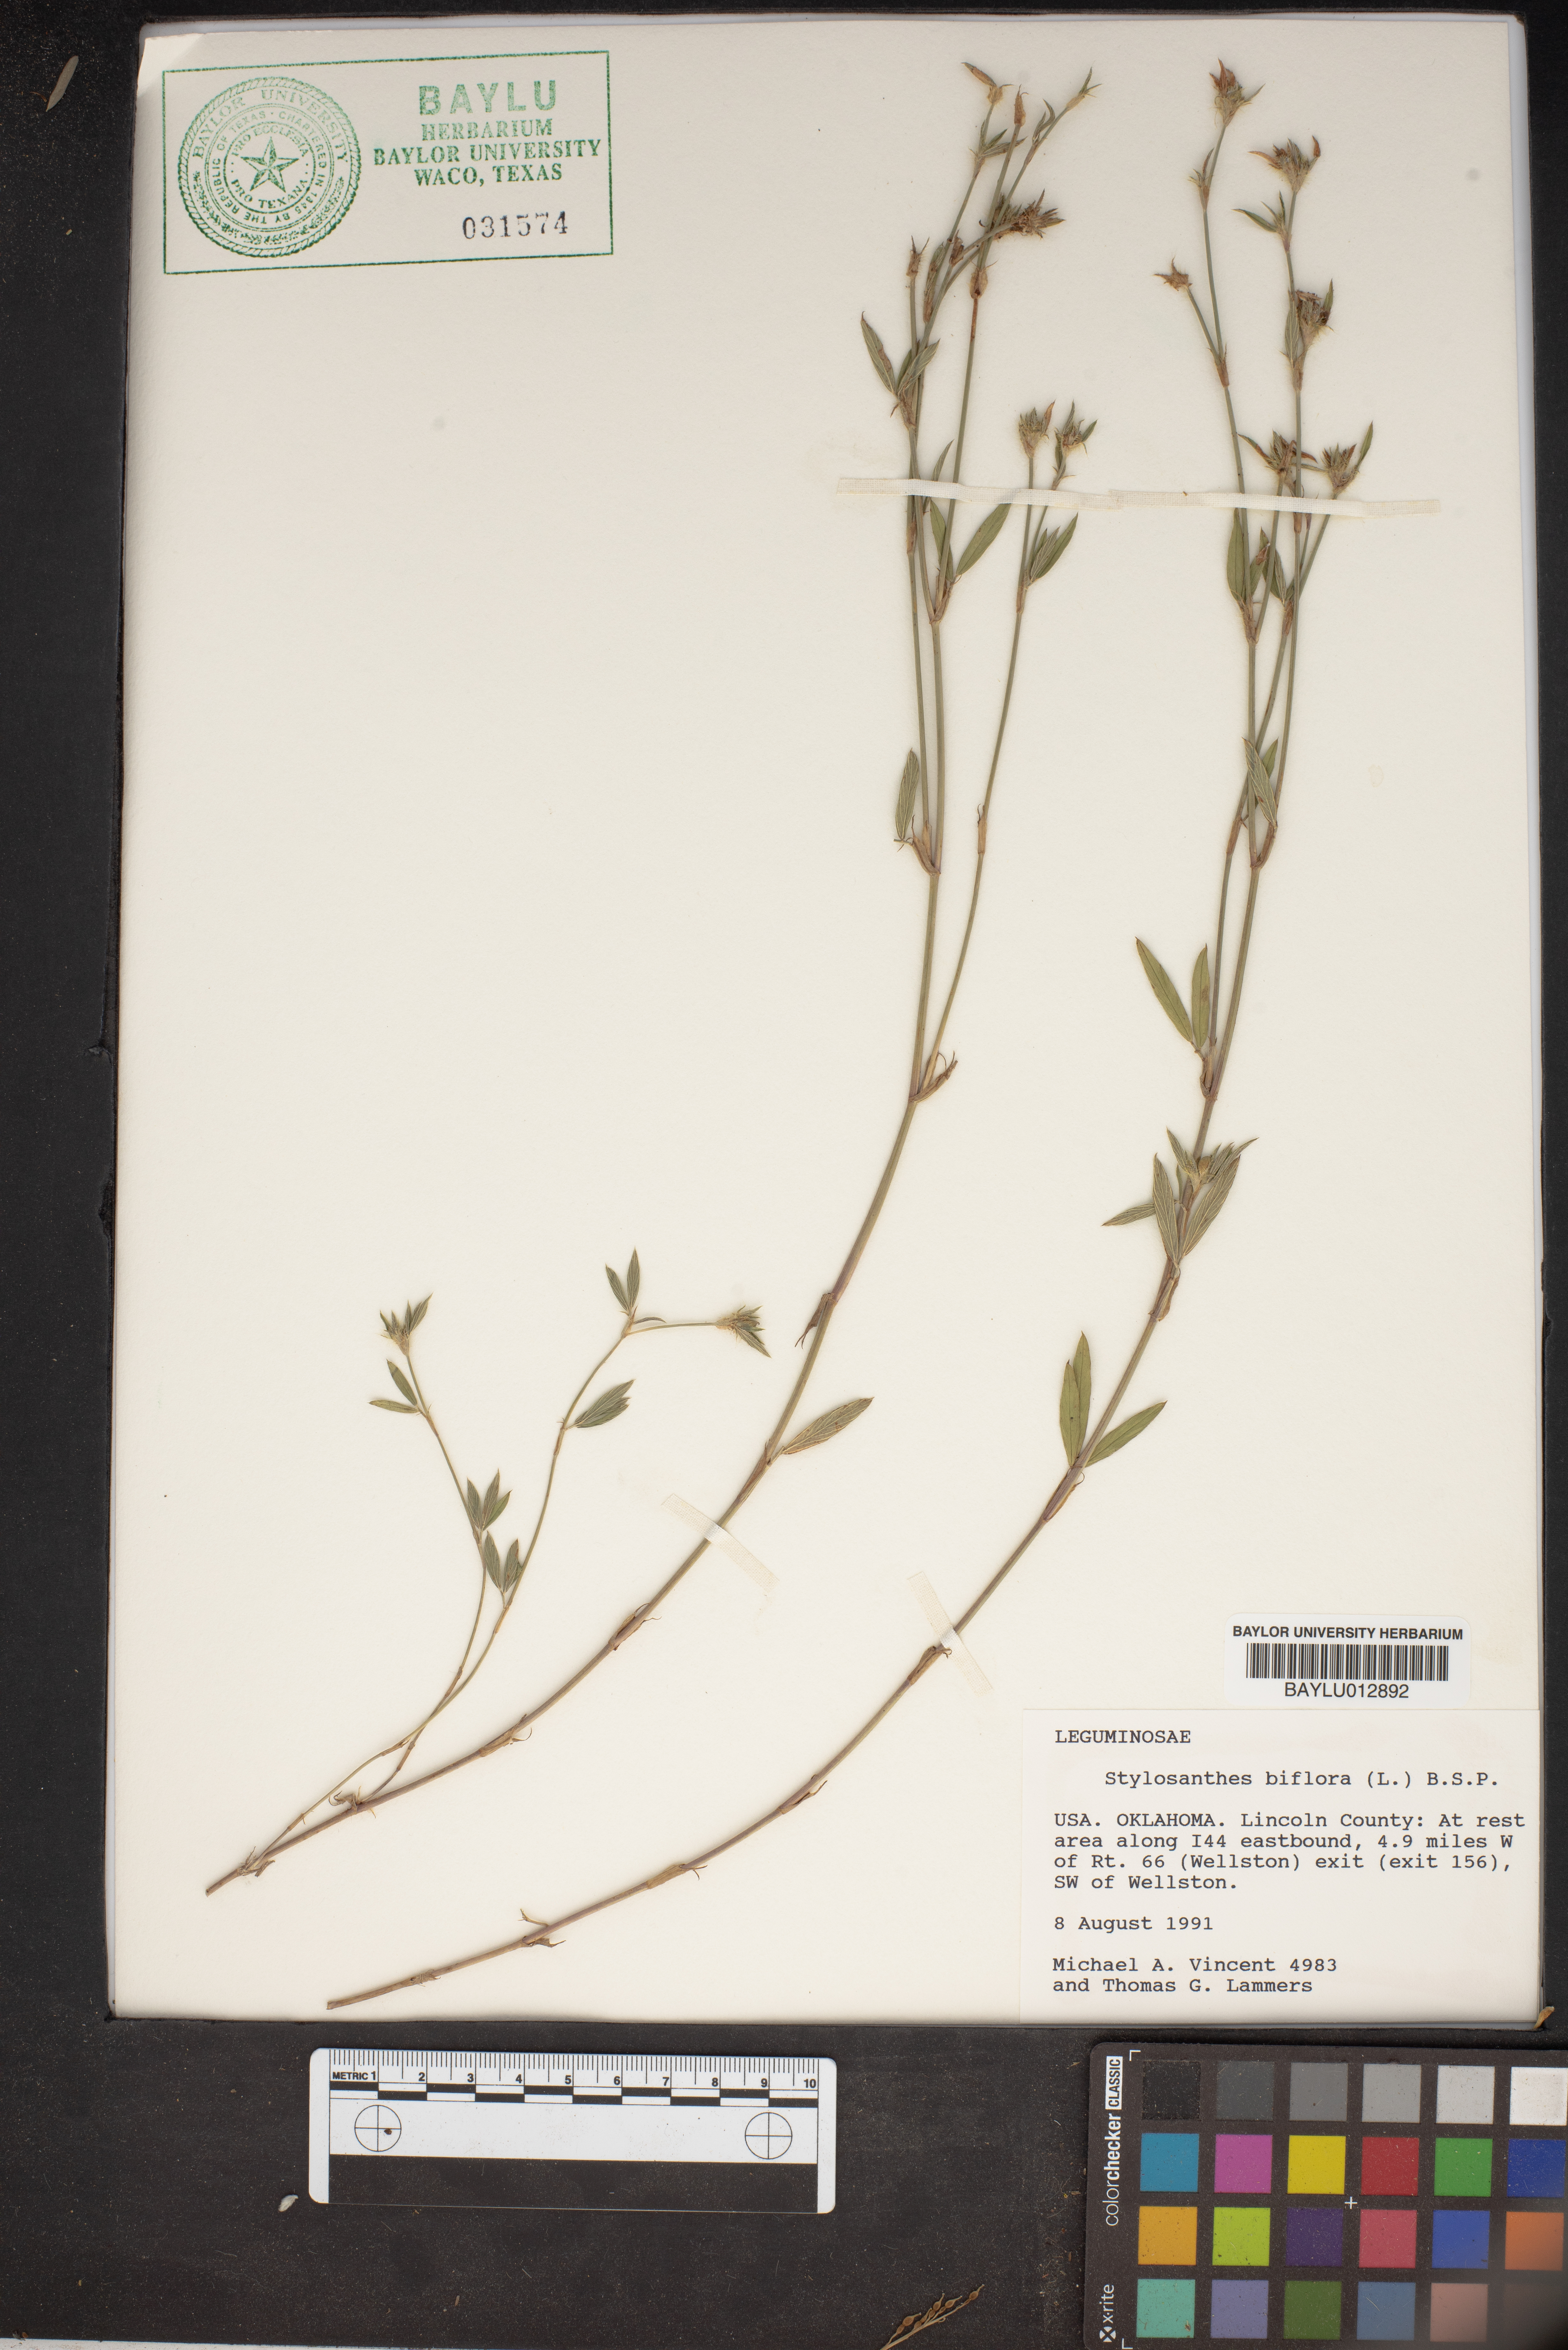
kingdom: Plantae
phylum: Tracheophyta
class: Magnoliopsida
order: Fabales
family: Fabaceae
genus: Stylosanthes
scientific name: Stylosanthes biflora
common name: Two-flower pencil-flower
